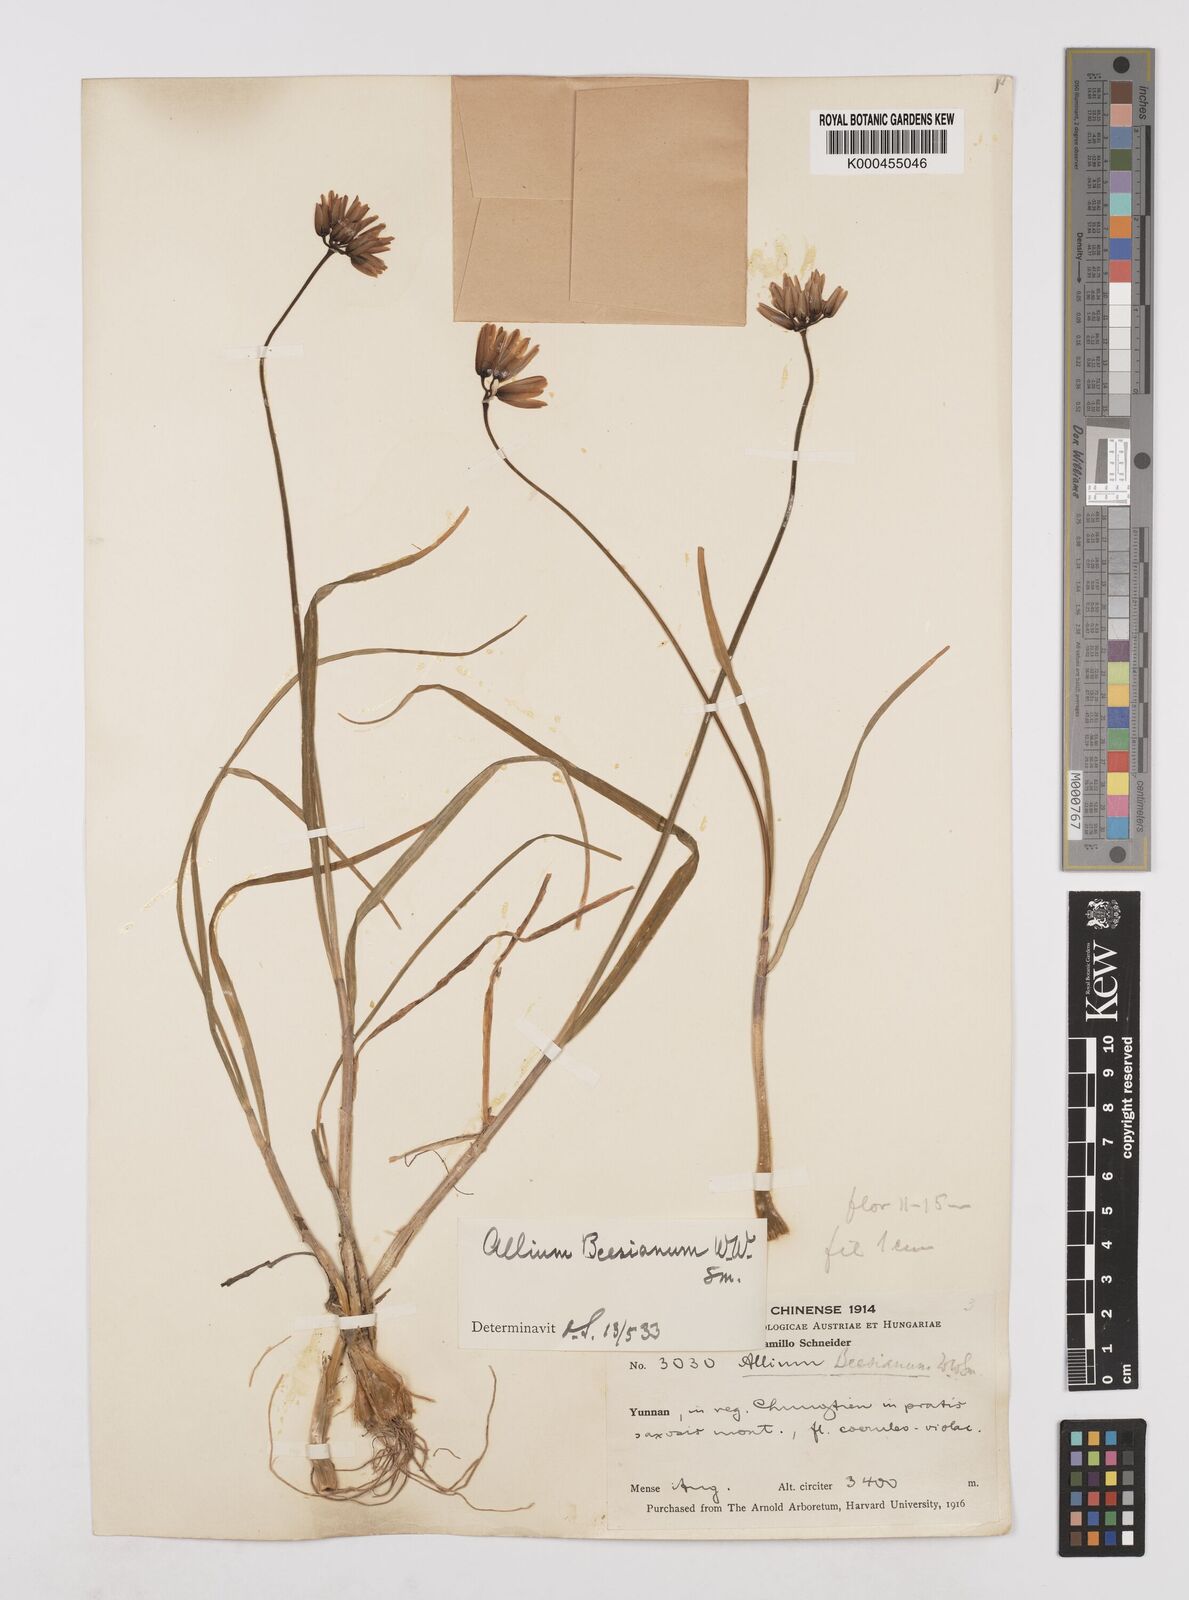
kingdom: Plantae
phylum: Tracheophyta
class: Liliopsida
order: Asparagales
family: Amaryllidaceae
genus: Allium
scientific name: Allium beesianum
